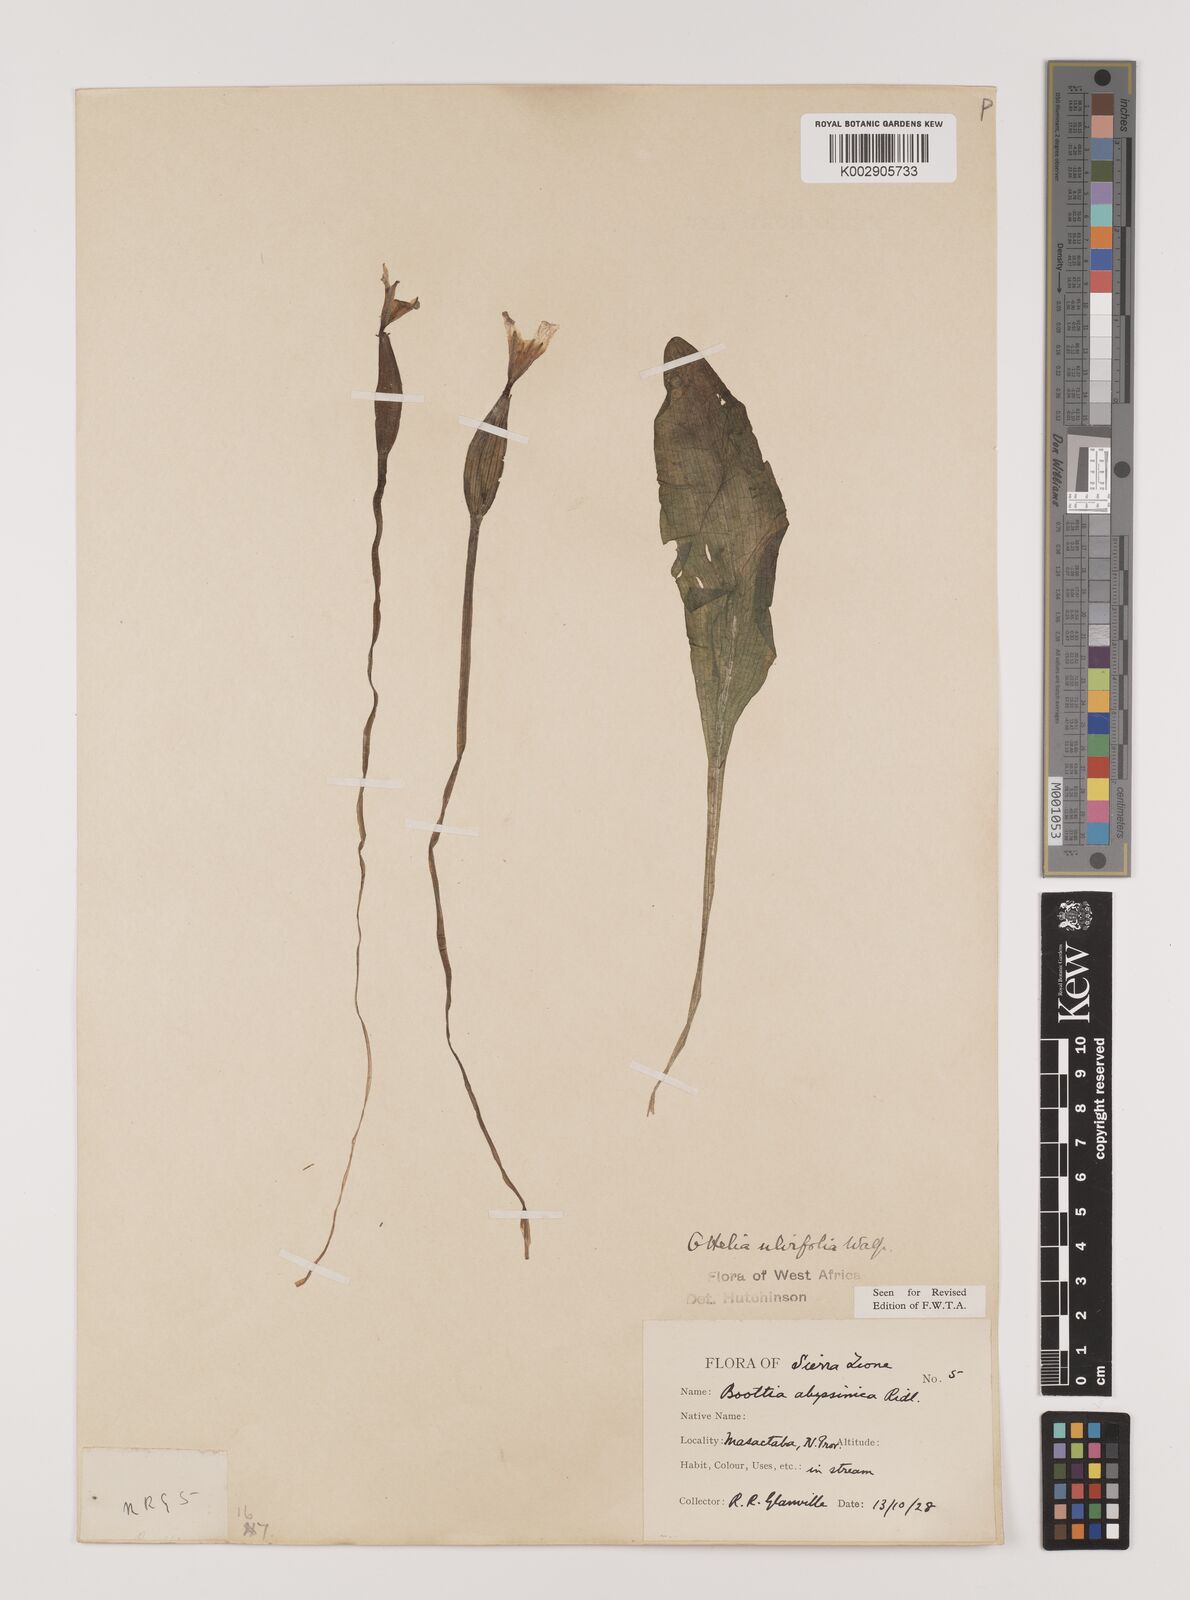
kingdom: Plantae
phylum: Tracheophyta
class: Liliopsida
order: Alismatales
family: Hydrocharitaceae
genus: Ottelia
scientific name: Ottelia ulvifolia
